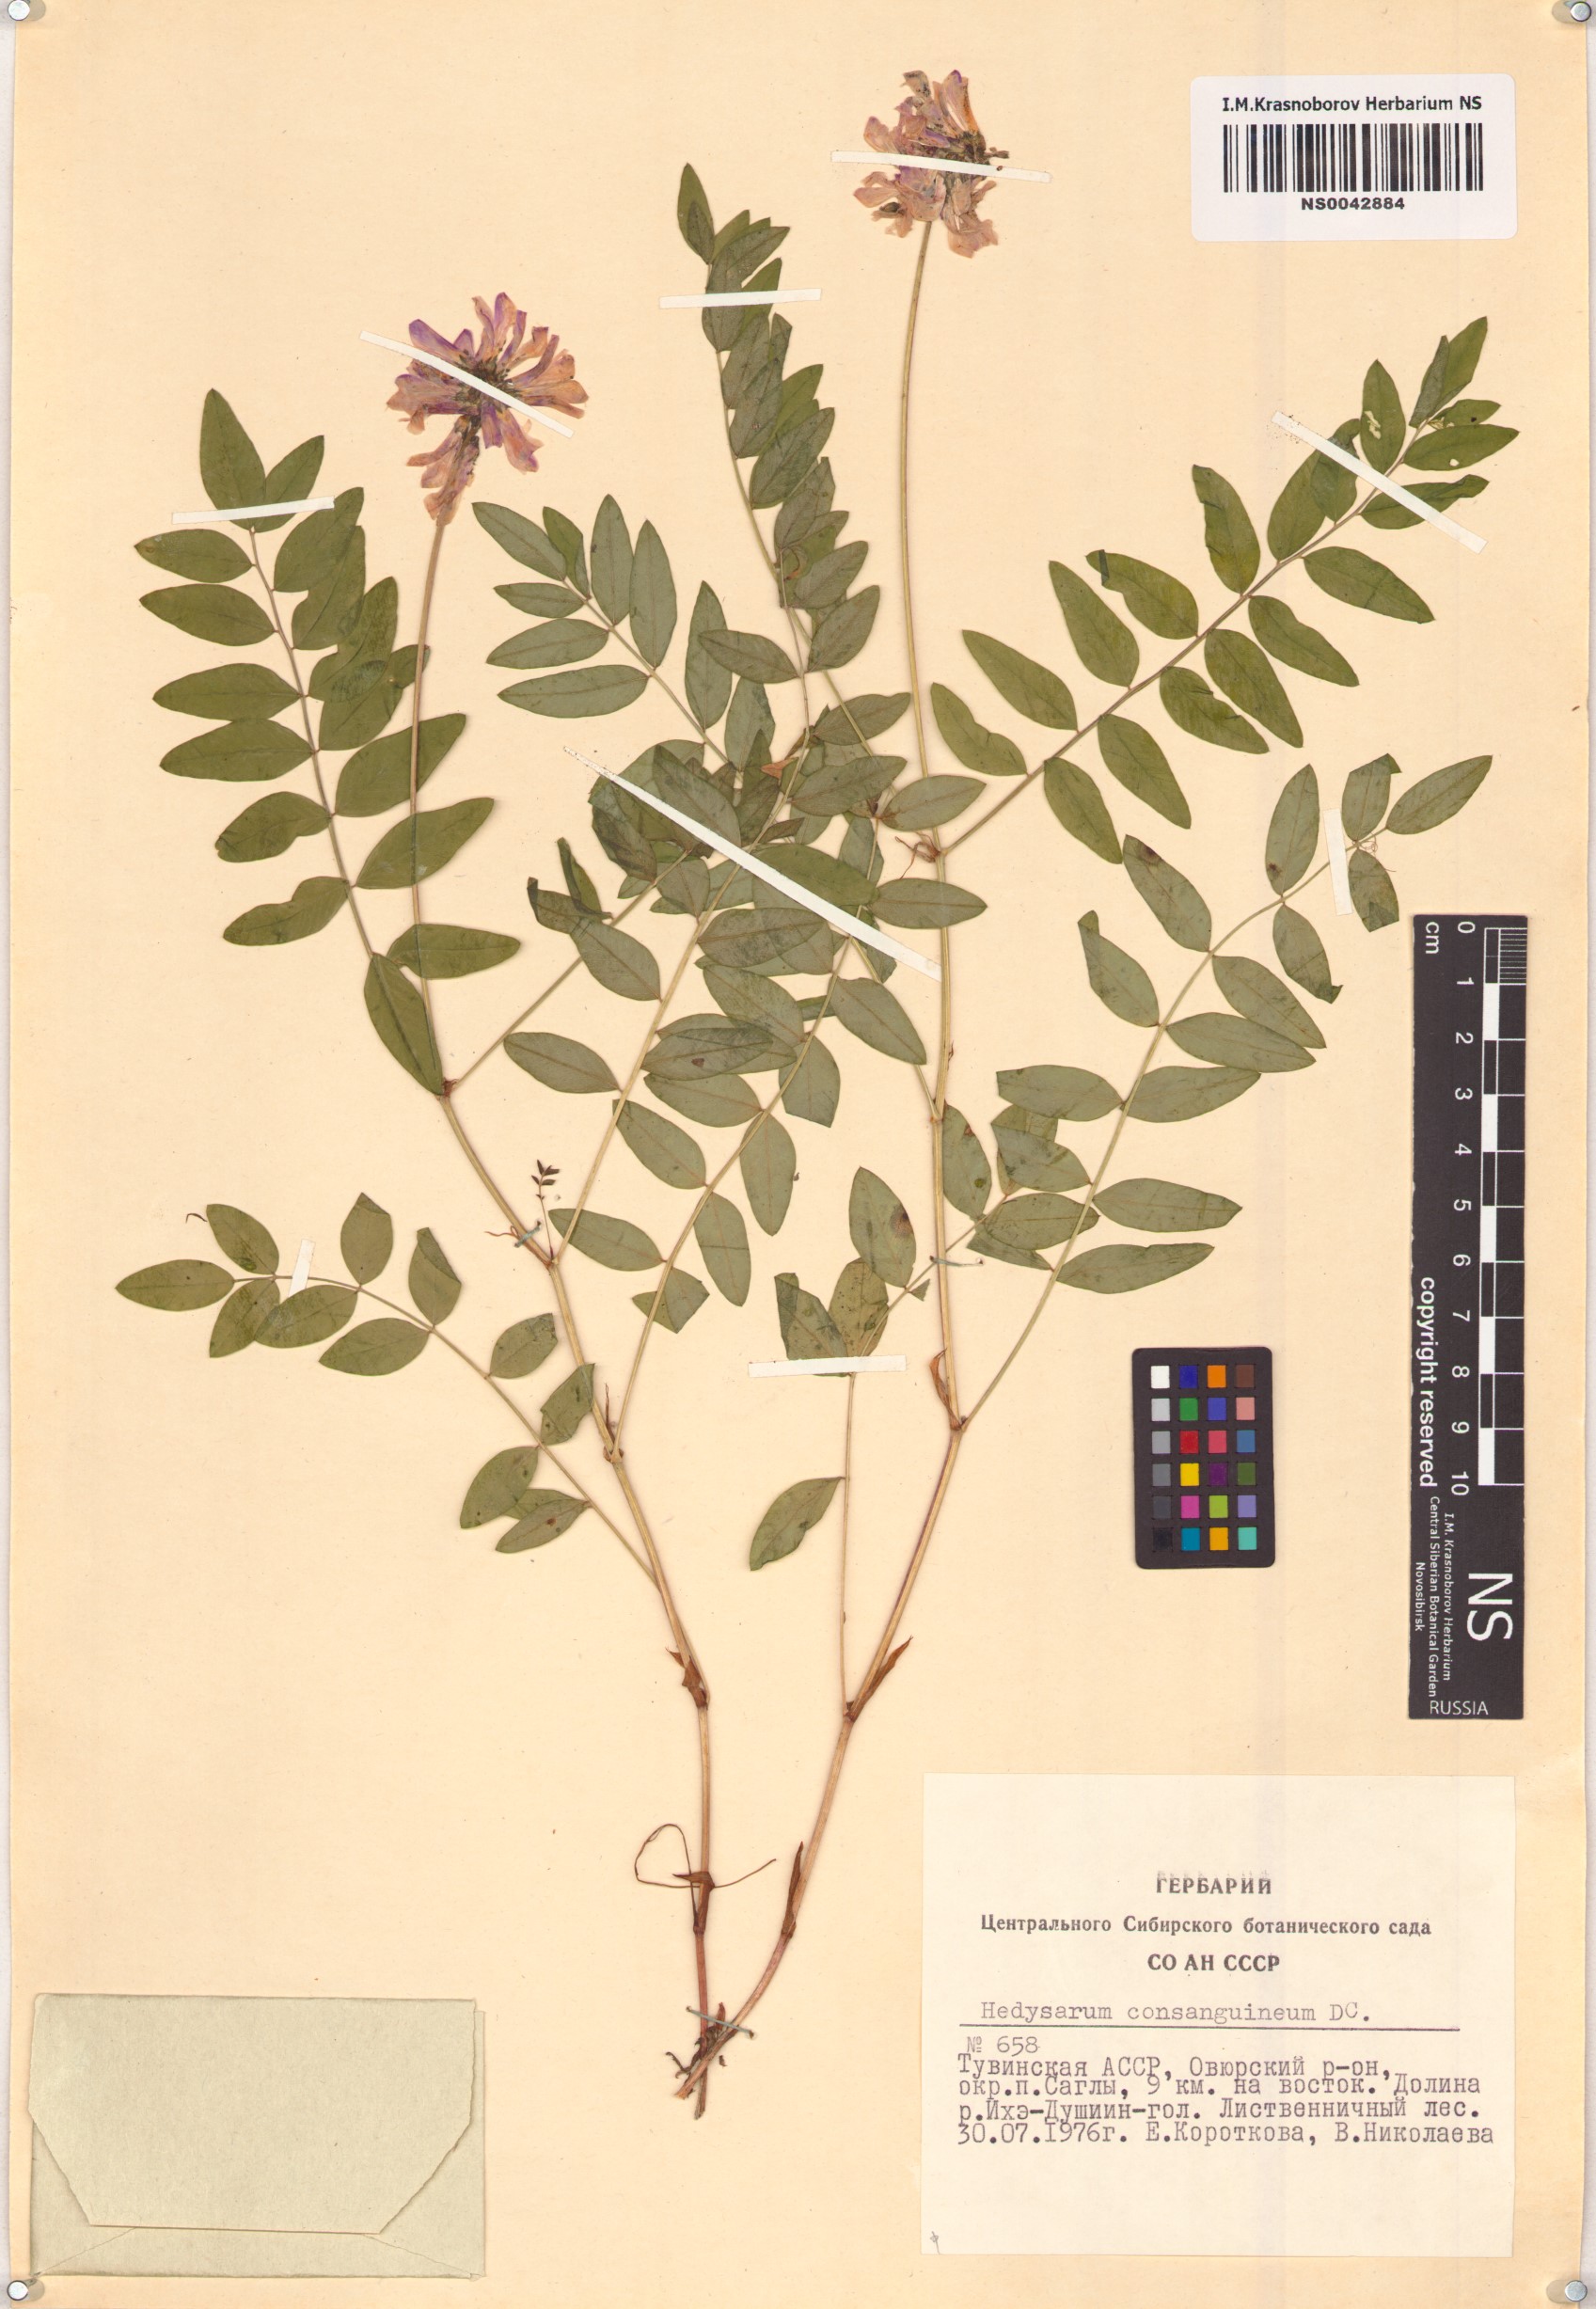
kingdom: Plantae
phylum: Tracheophyta
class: Magnoliopsida
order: Fabales
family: Fabaceae
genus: Hedysarum
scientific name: Hedysarum consanguineum
